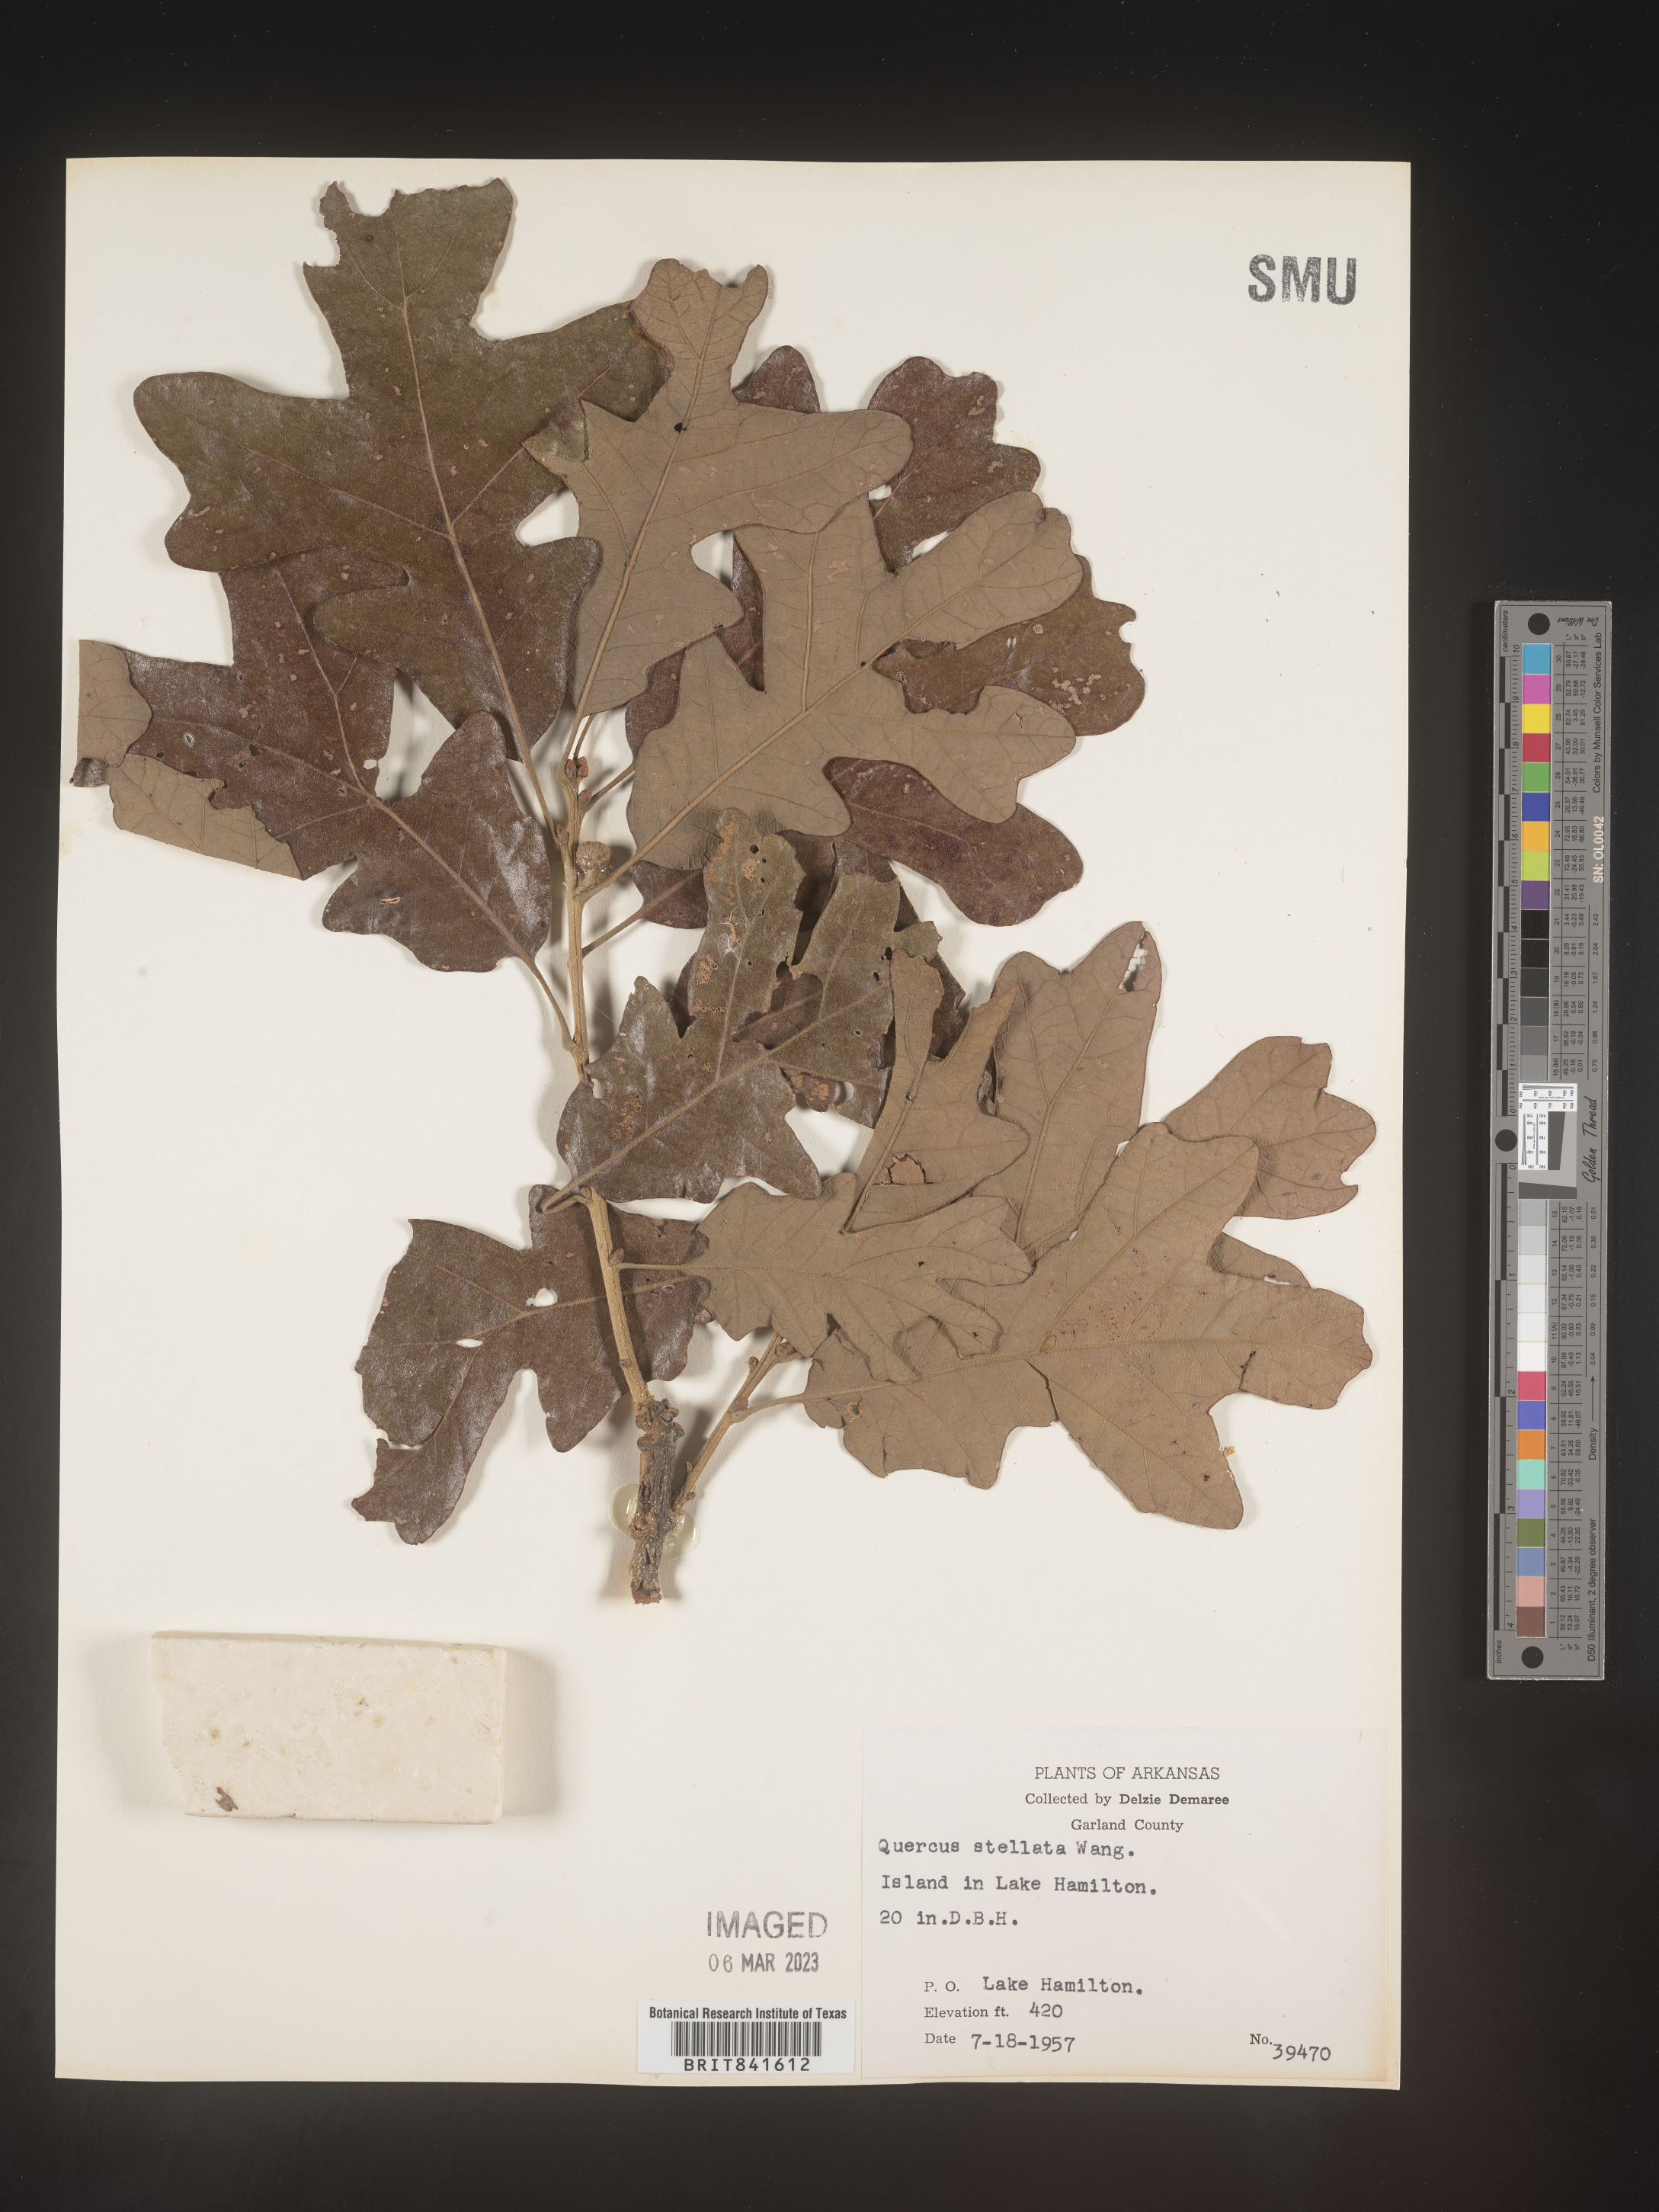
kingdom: Plantae
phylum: Tracheophyta
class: Magnoliopsida
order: Fagales
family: Fagaceae
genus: Quercus
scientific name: Quercus stellata
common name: Post oak
